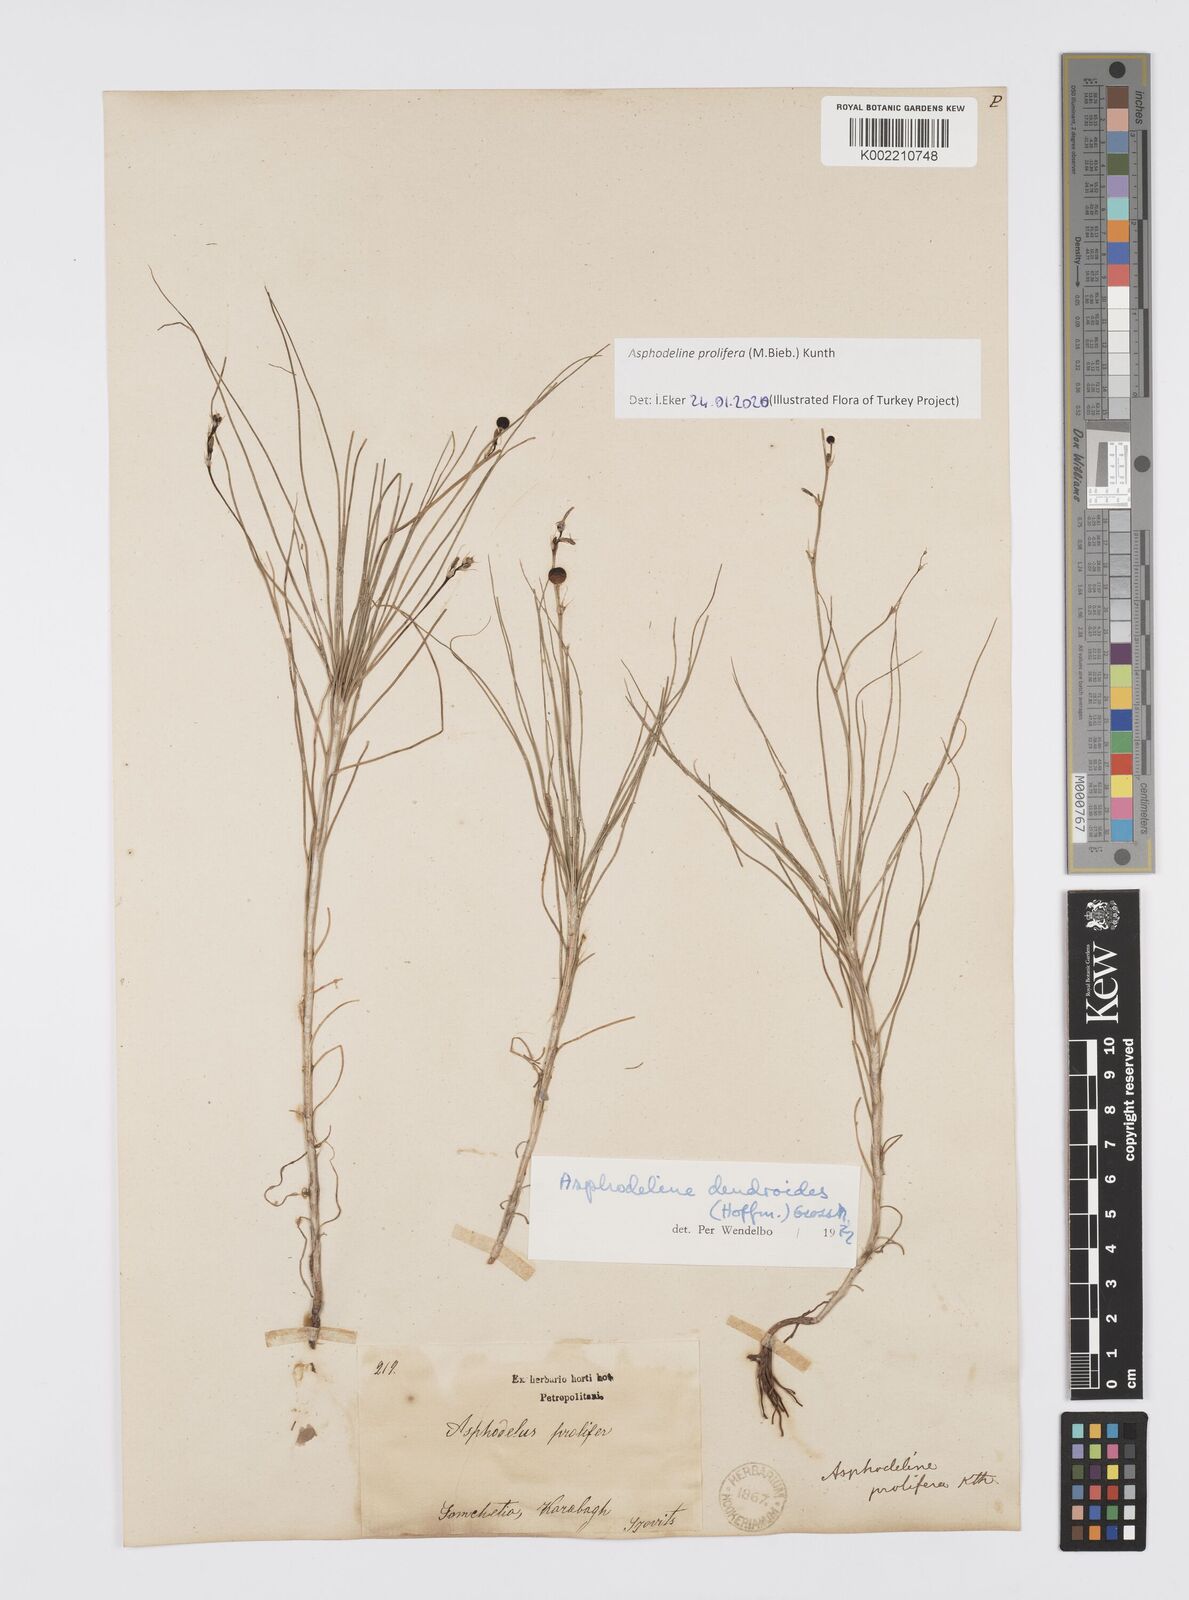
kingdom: Plantae
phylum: Tracheophyta
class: Liliopsida
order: Asparagales
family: Asphodelaceae
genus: Asphodeline
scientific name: Asphodeline prolifera
